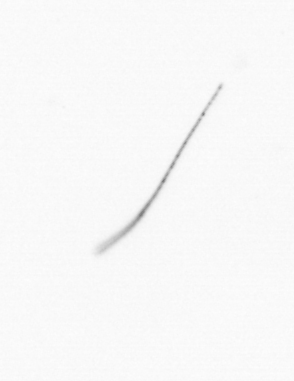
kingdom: Chromista
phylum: Ochrophyta
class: Bacillariophyceae
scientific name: Bacillariophyceae
